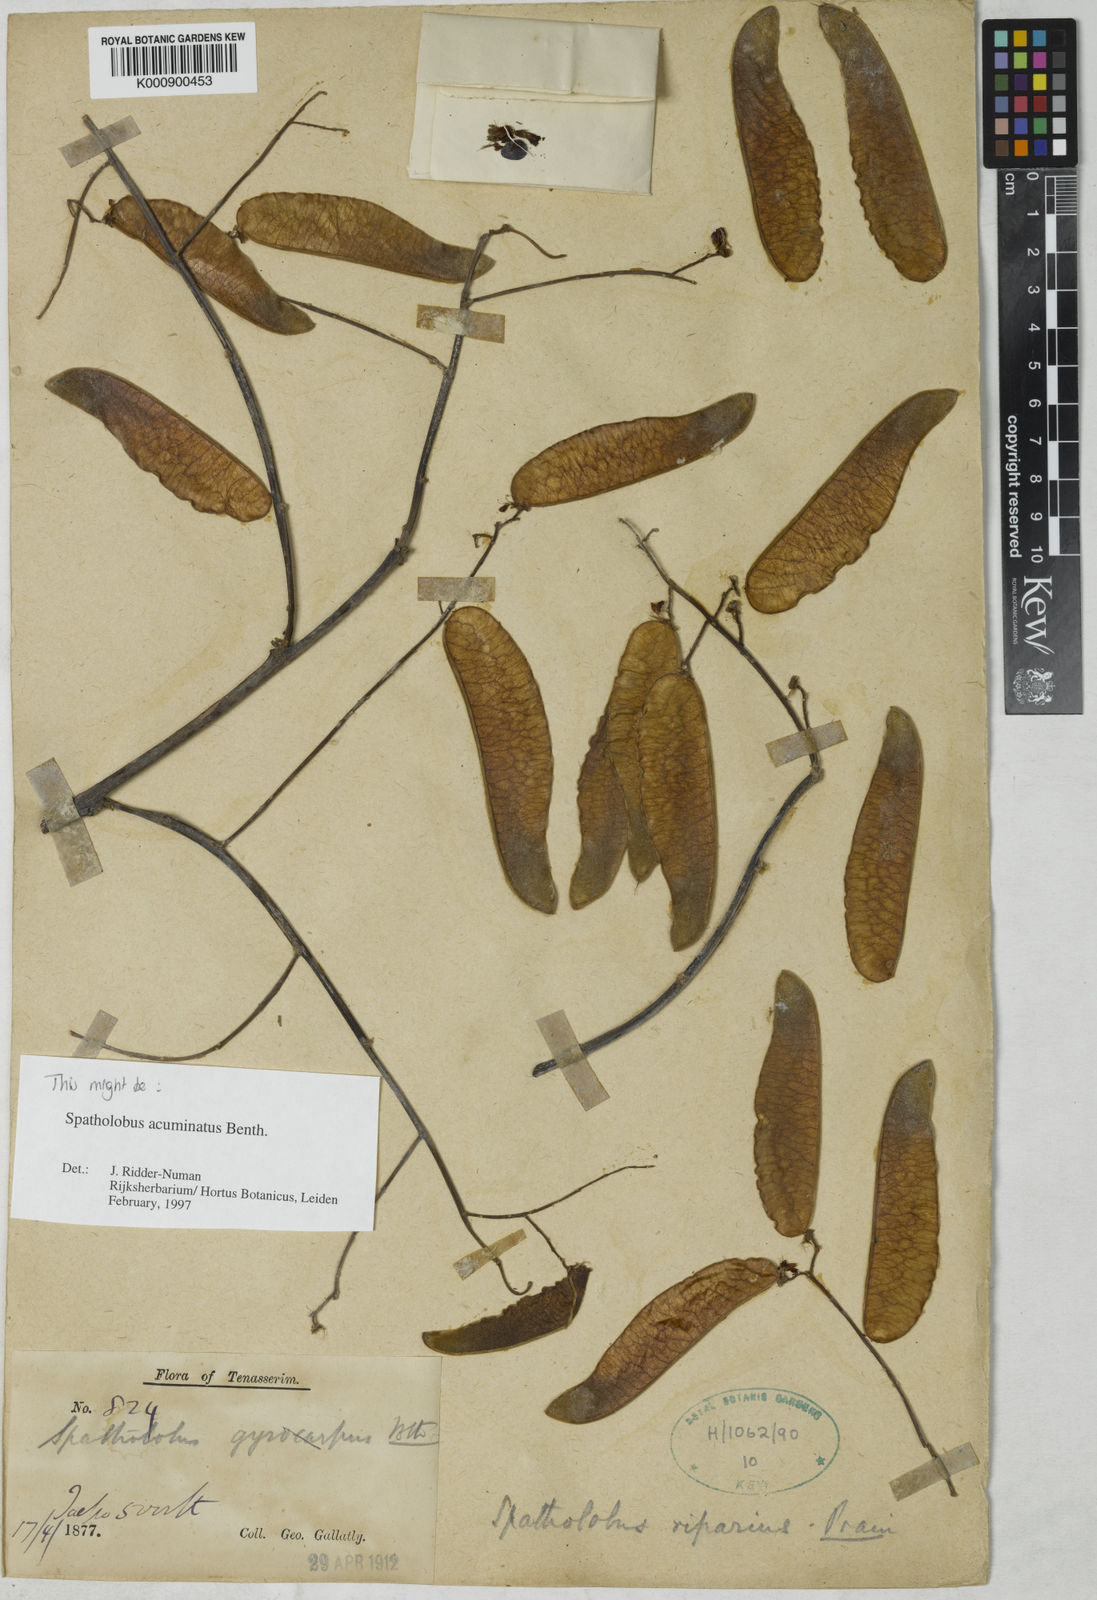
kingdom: Plantae
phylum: Tracheophyta
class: Magnoliopsida
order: Fabales
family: Fabaceae
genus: Spatholobus
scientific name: Spatholobus
